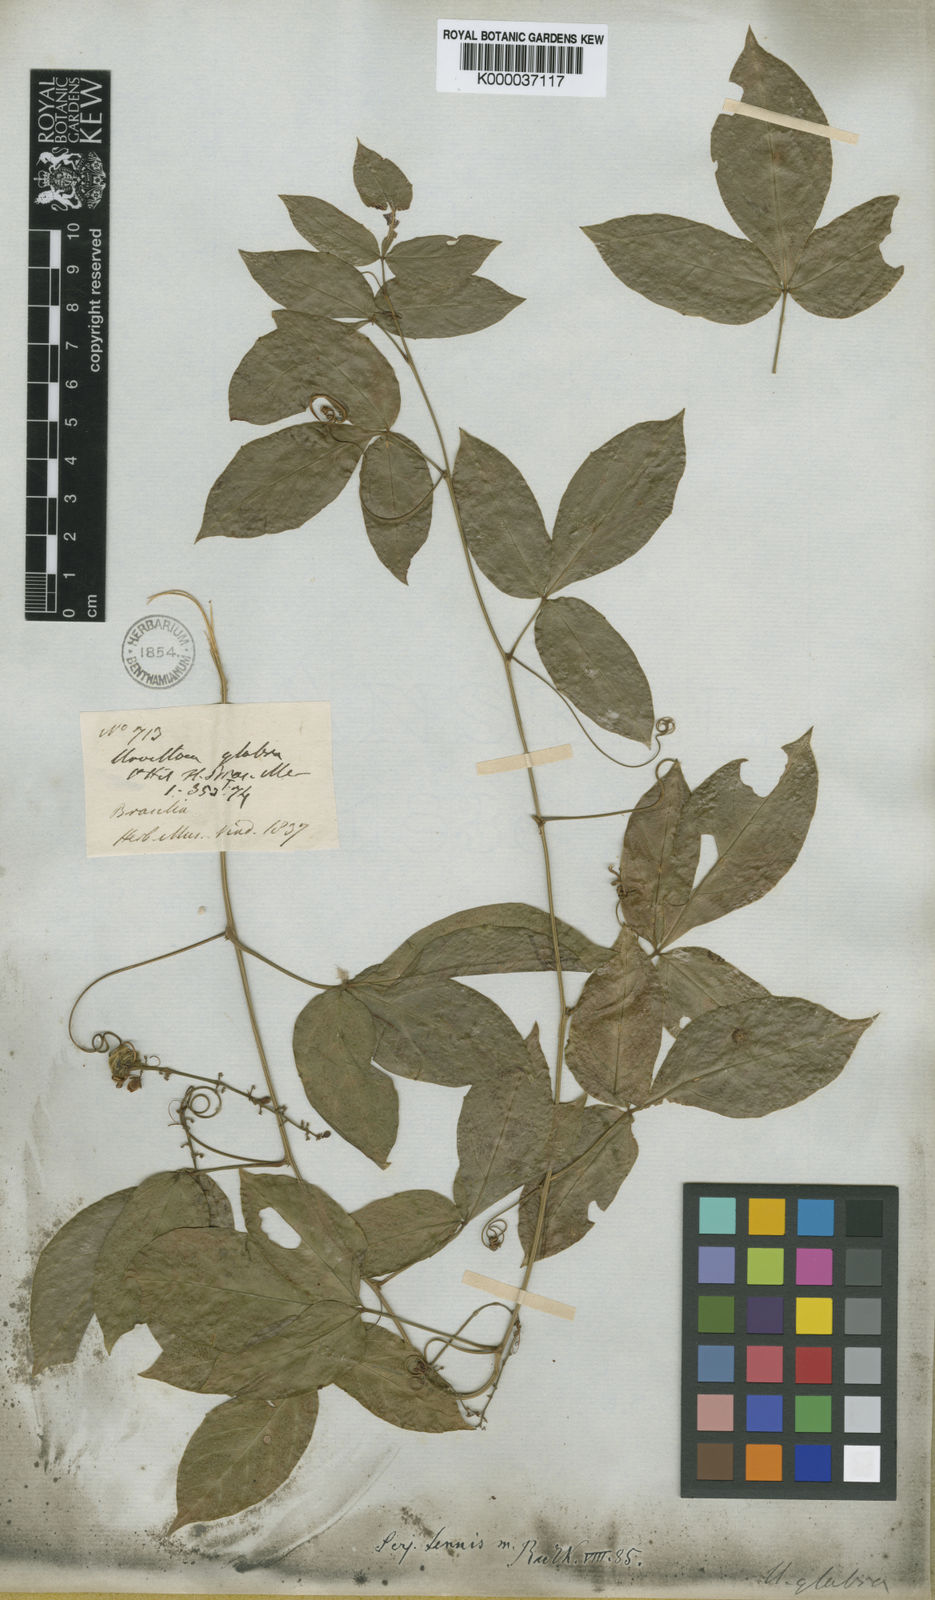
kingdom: Plantae
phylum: Tracheophyta
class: Magnoliopsida
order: Sapindales
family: Sapindaceae
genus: Serjania
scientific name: Serjania tenuis
